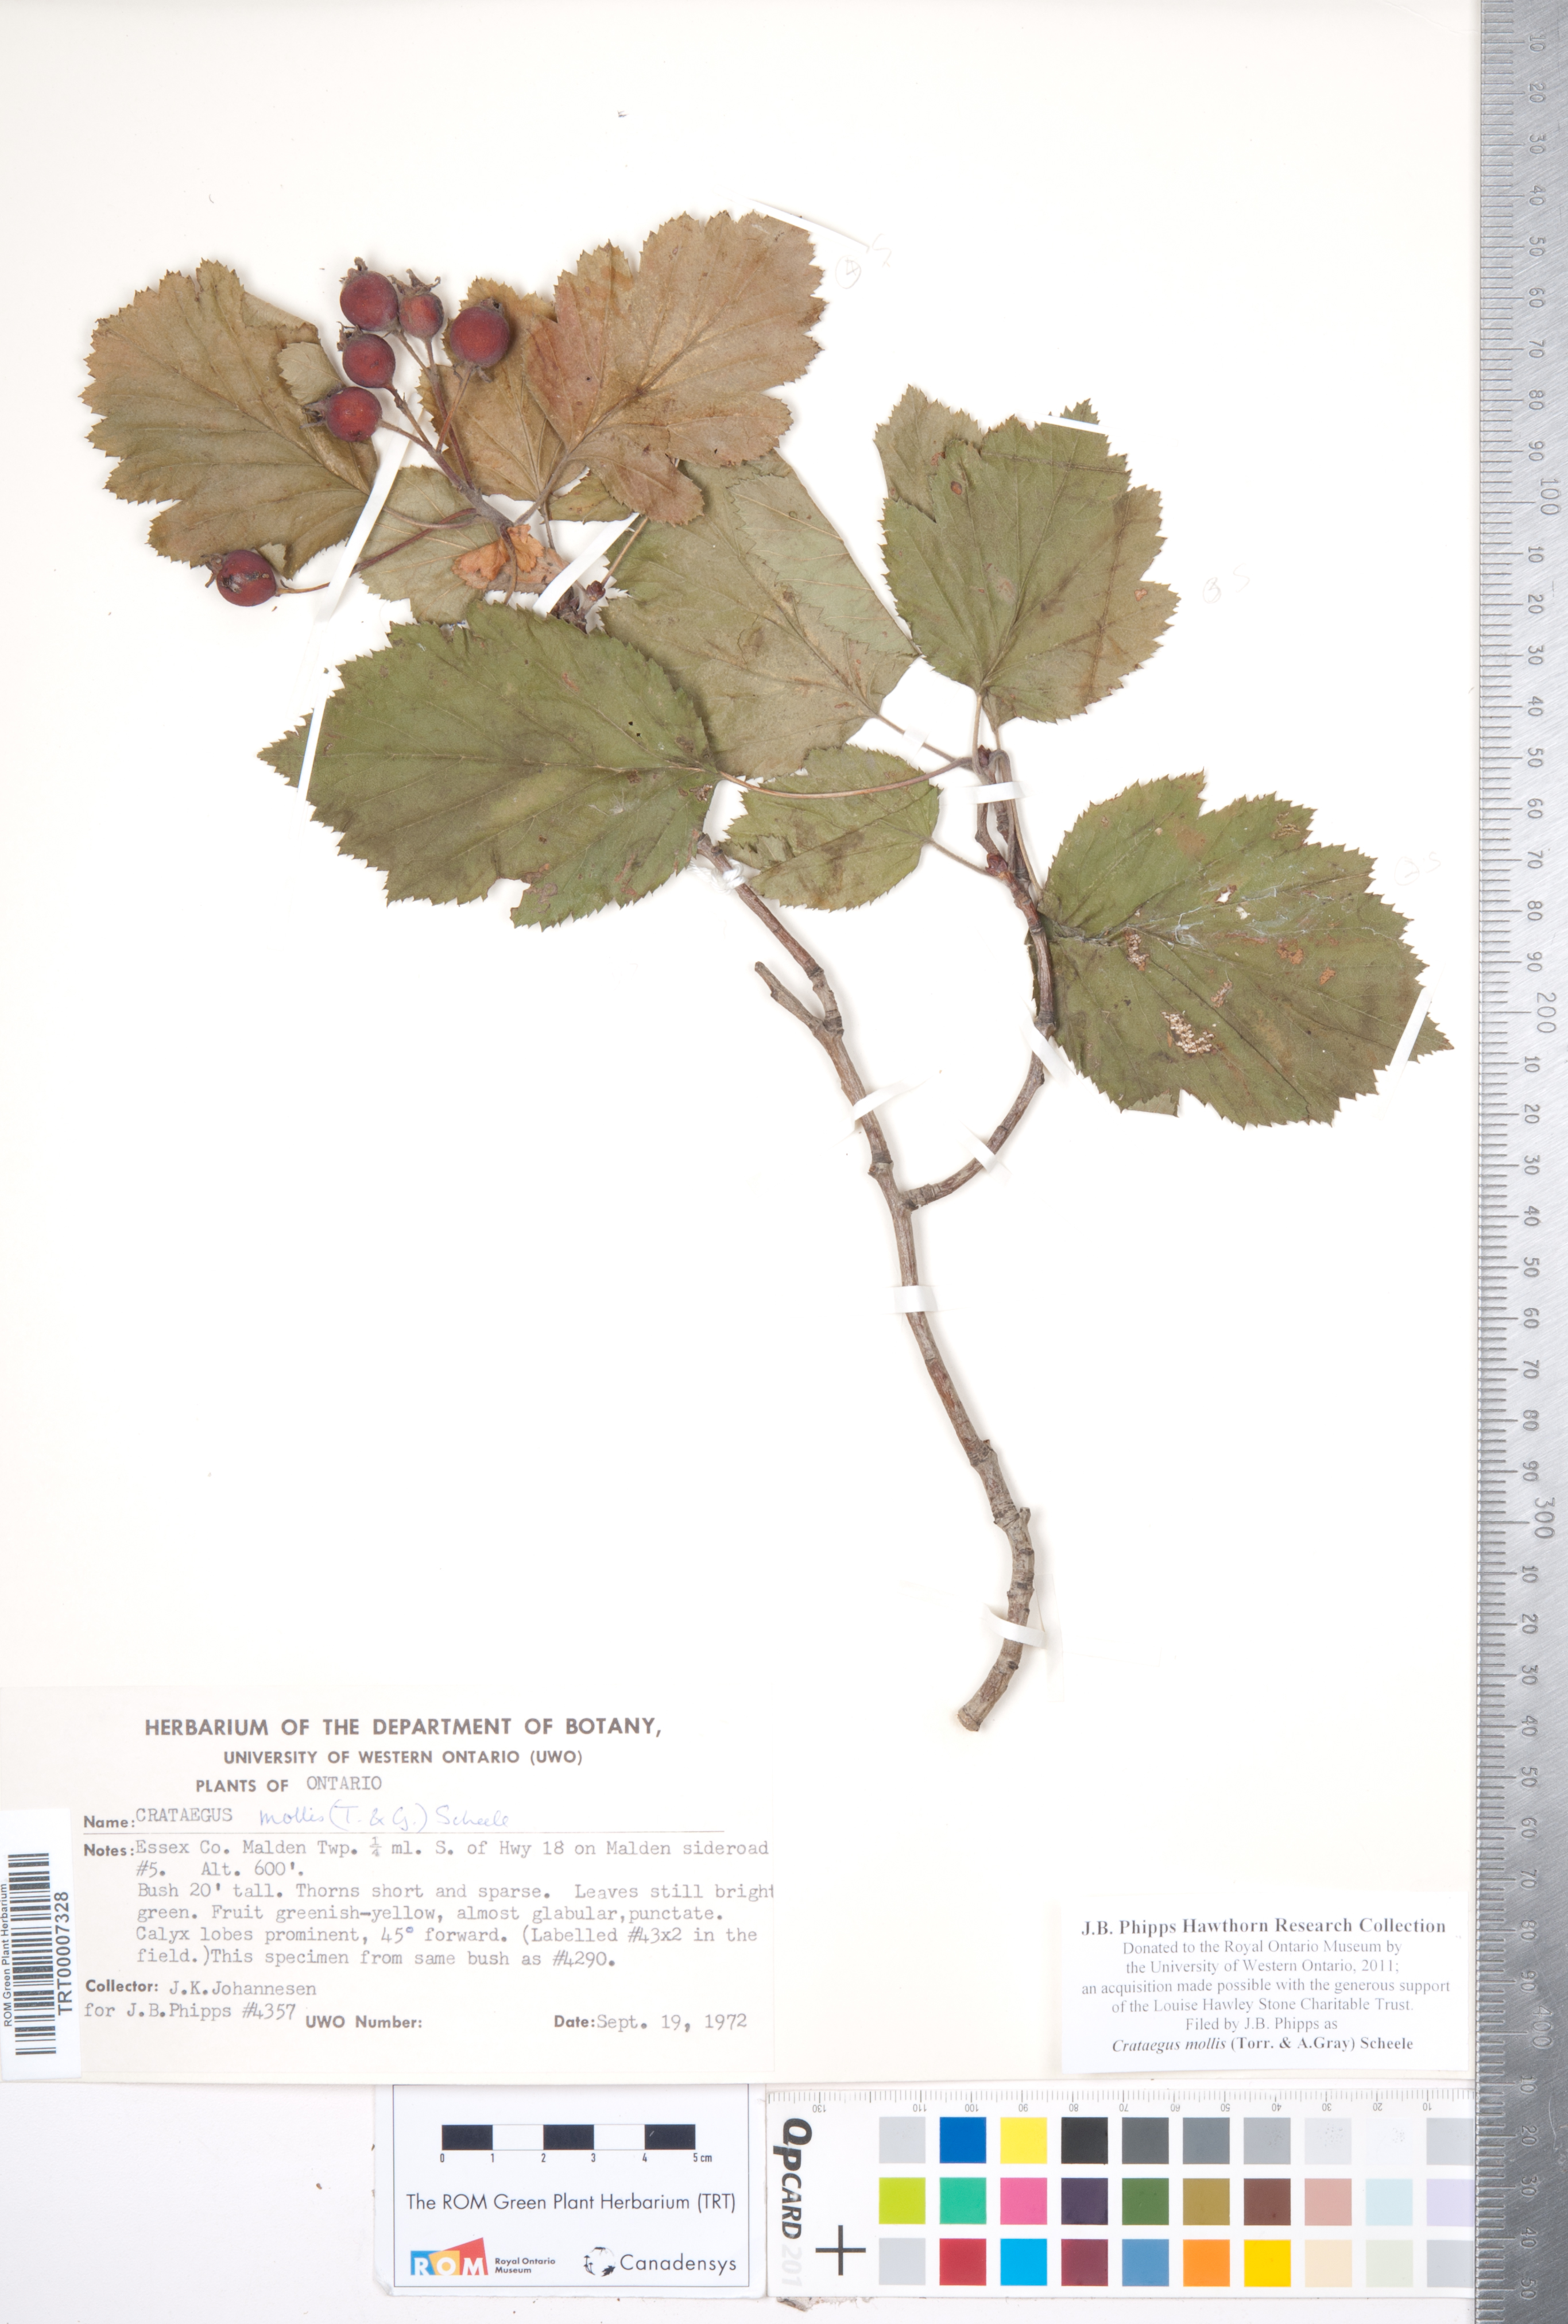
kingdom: Plantae
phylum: Tracheophyta
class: Magnoliopsida
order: Rosales
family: Rosaceae
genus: Crataegus
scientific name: Crataegus mollis
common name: Downy hawthorn
